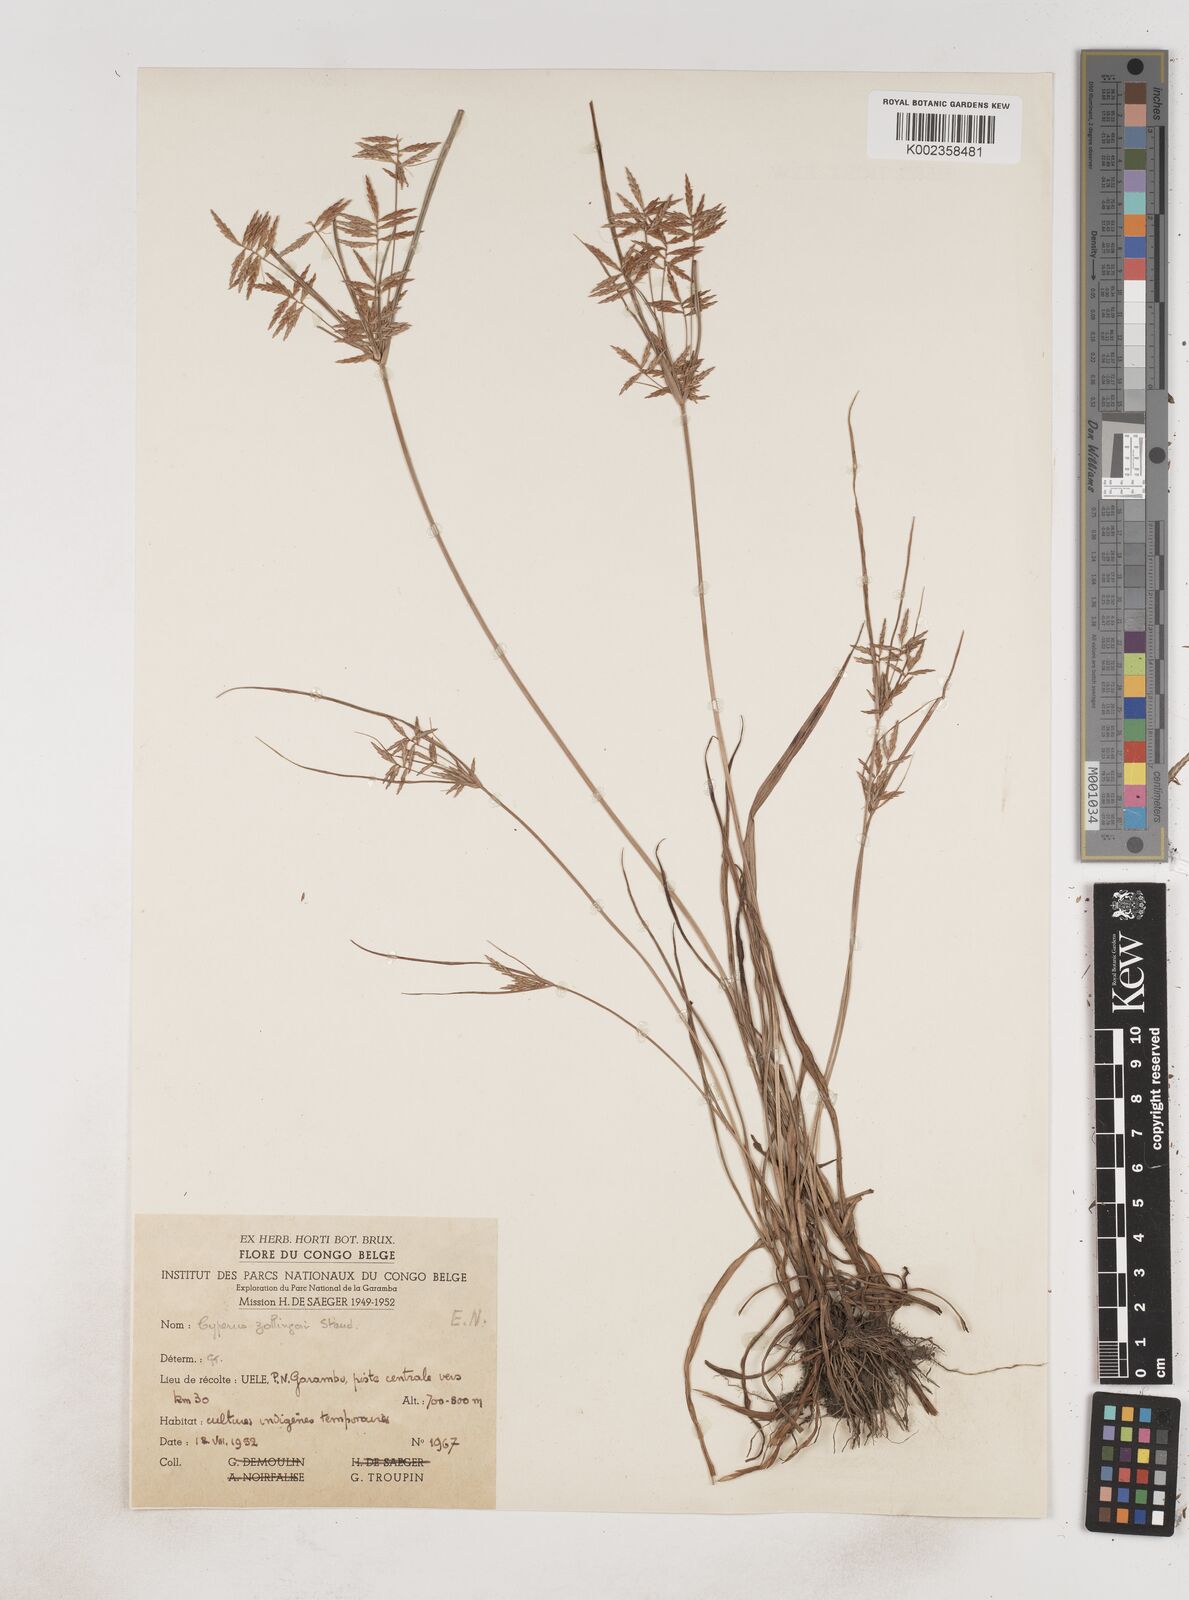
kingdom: Plantae
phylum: Tracheophyta
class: Liliopsida
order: Poales
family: Cyperaceae
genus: Cyperus
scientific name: Cyperus dilatatus
